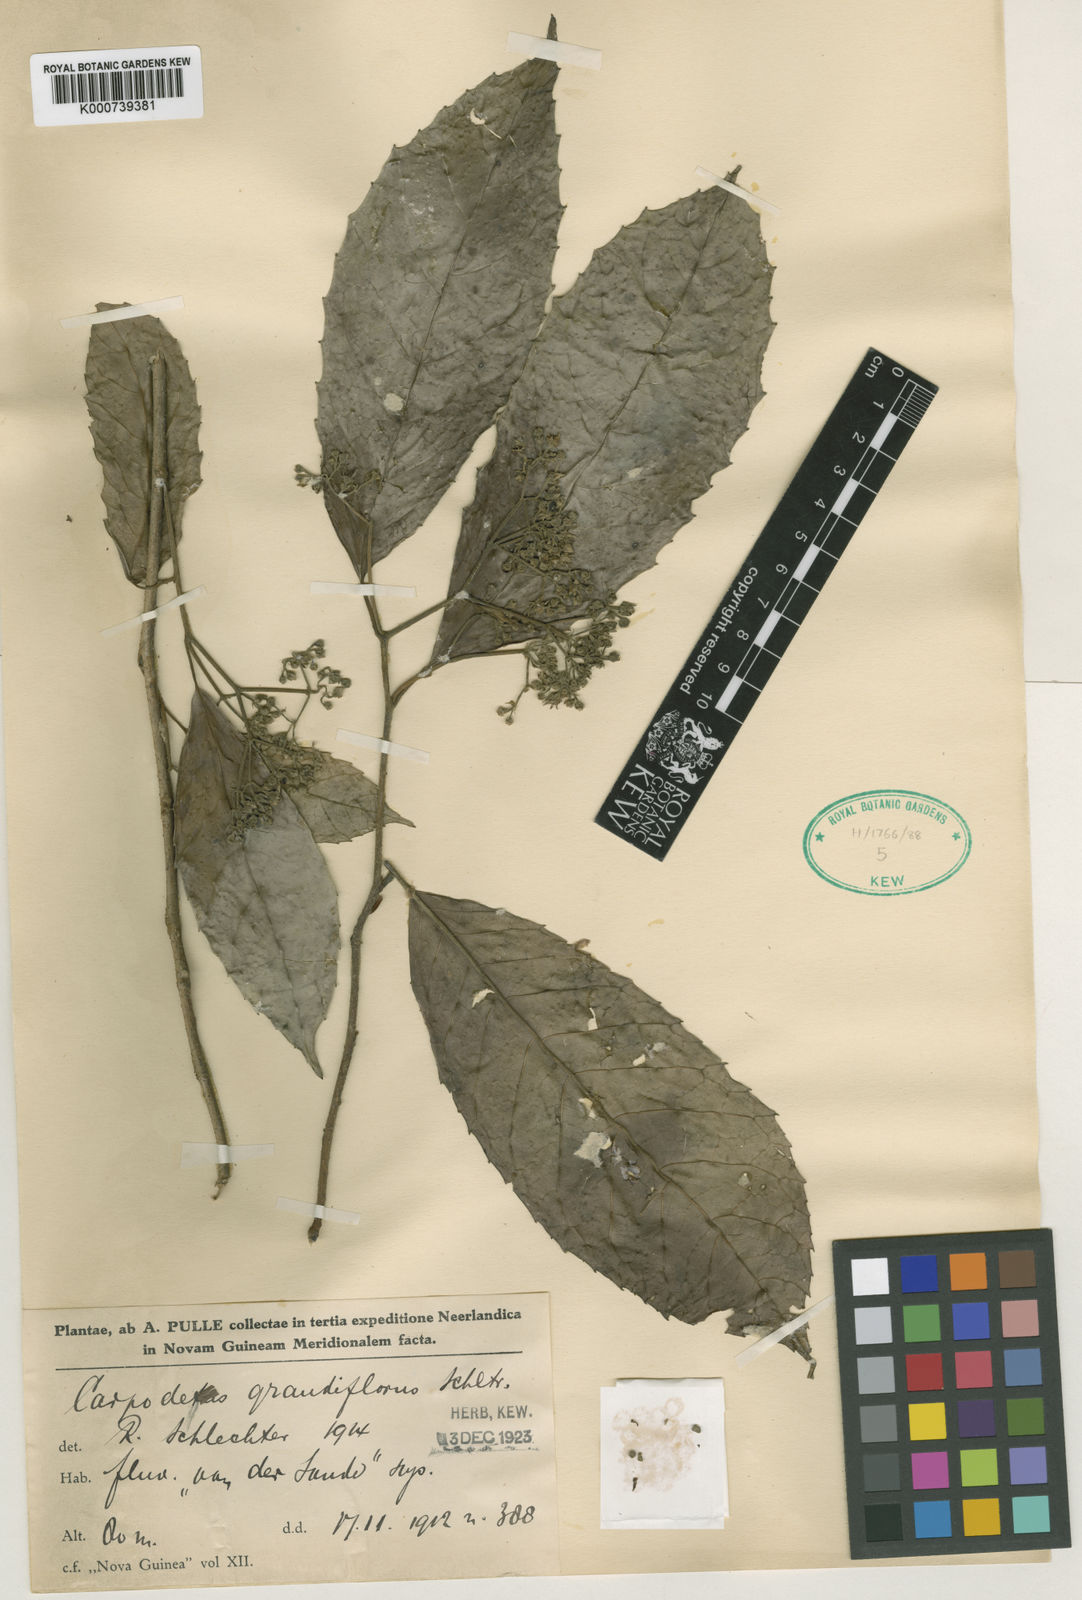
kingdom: Plantae
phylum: Tracheophyta
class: Magnoliopsida
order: Asterales
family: Rousseaceae
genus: Carpodetus
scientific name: Carpodetus arboreus
